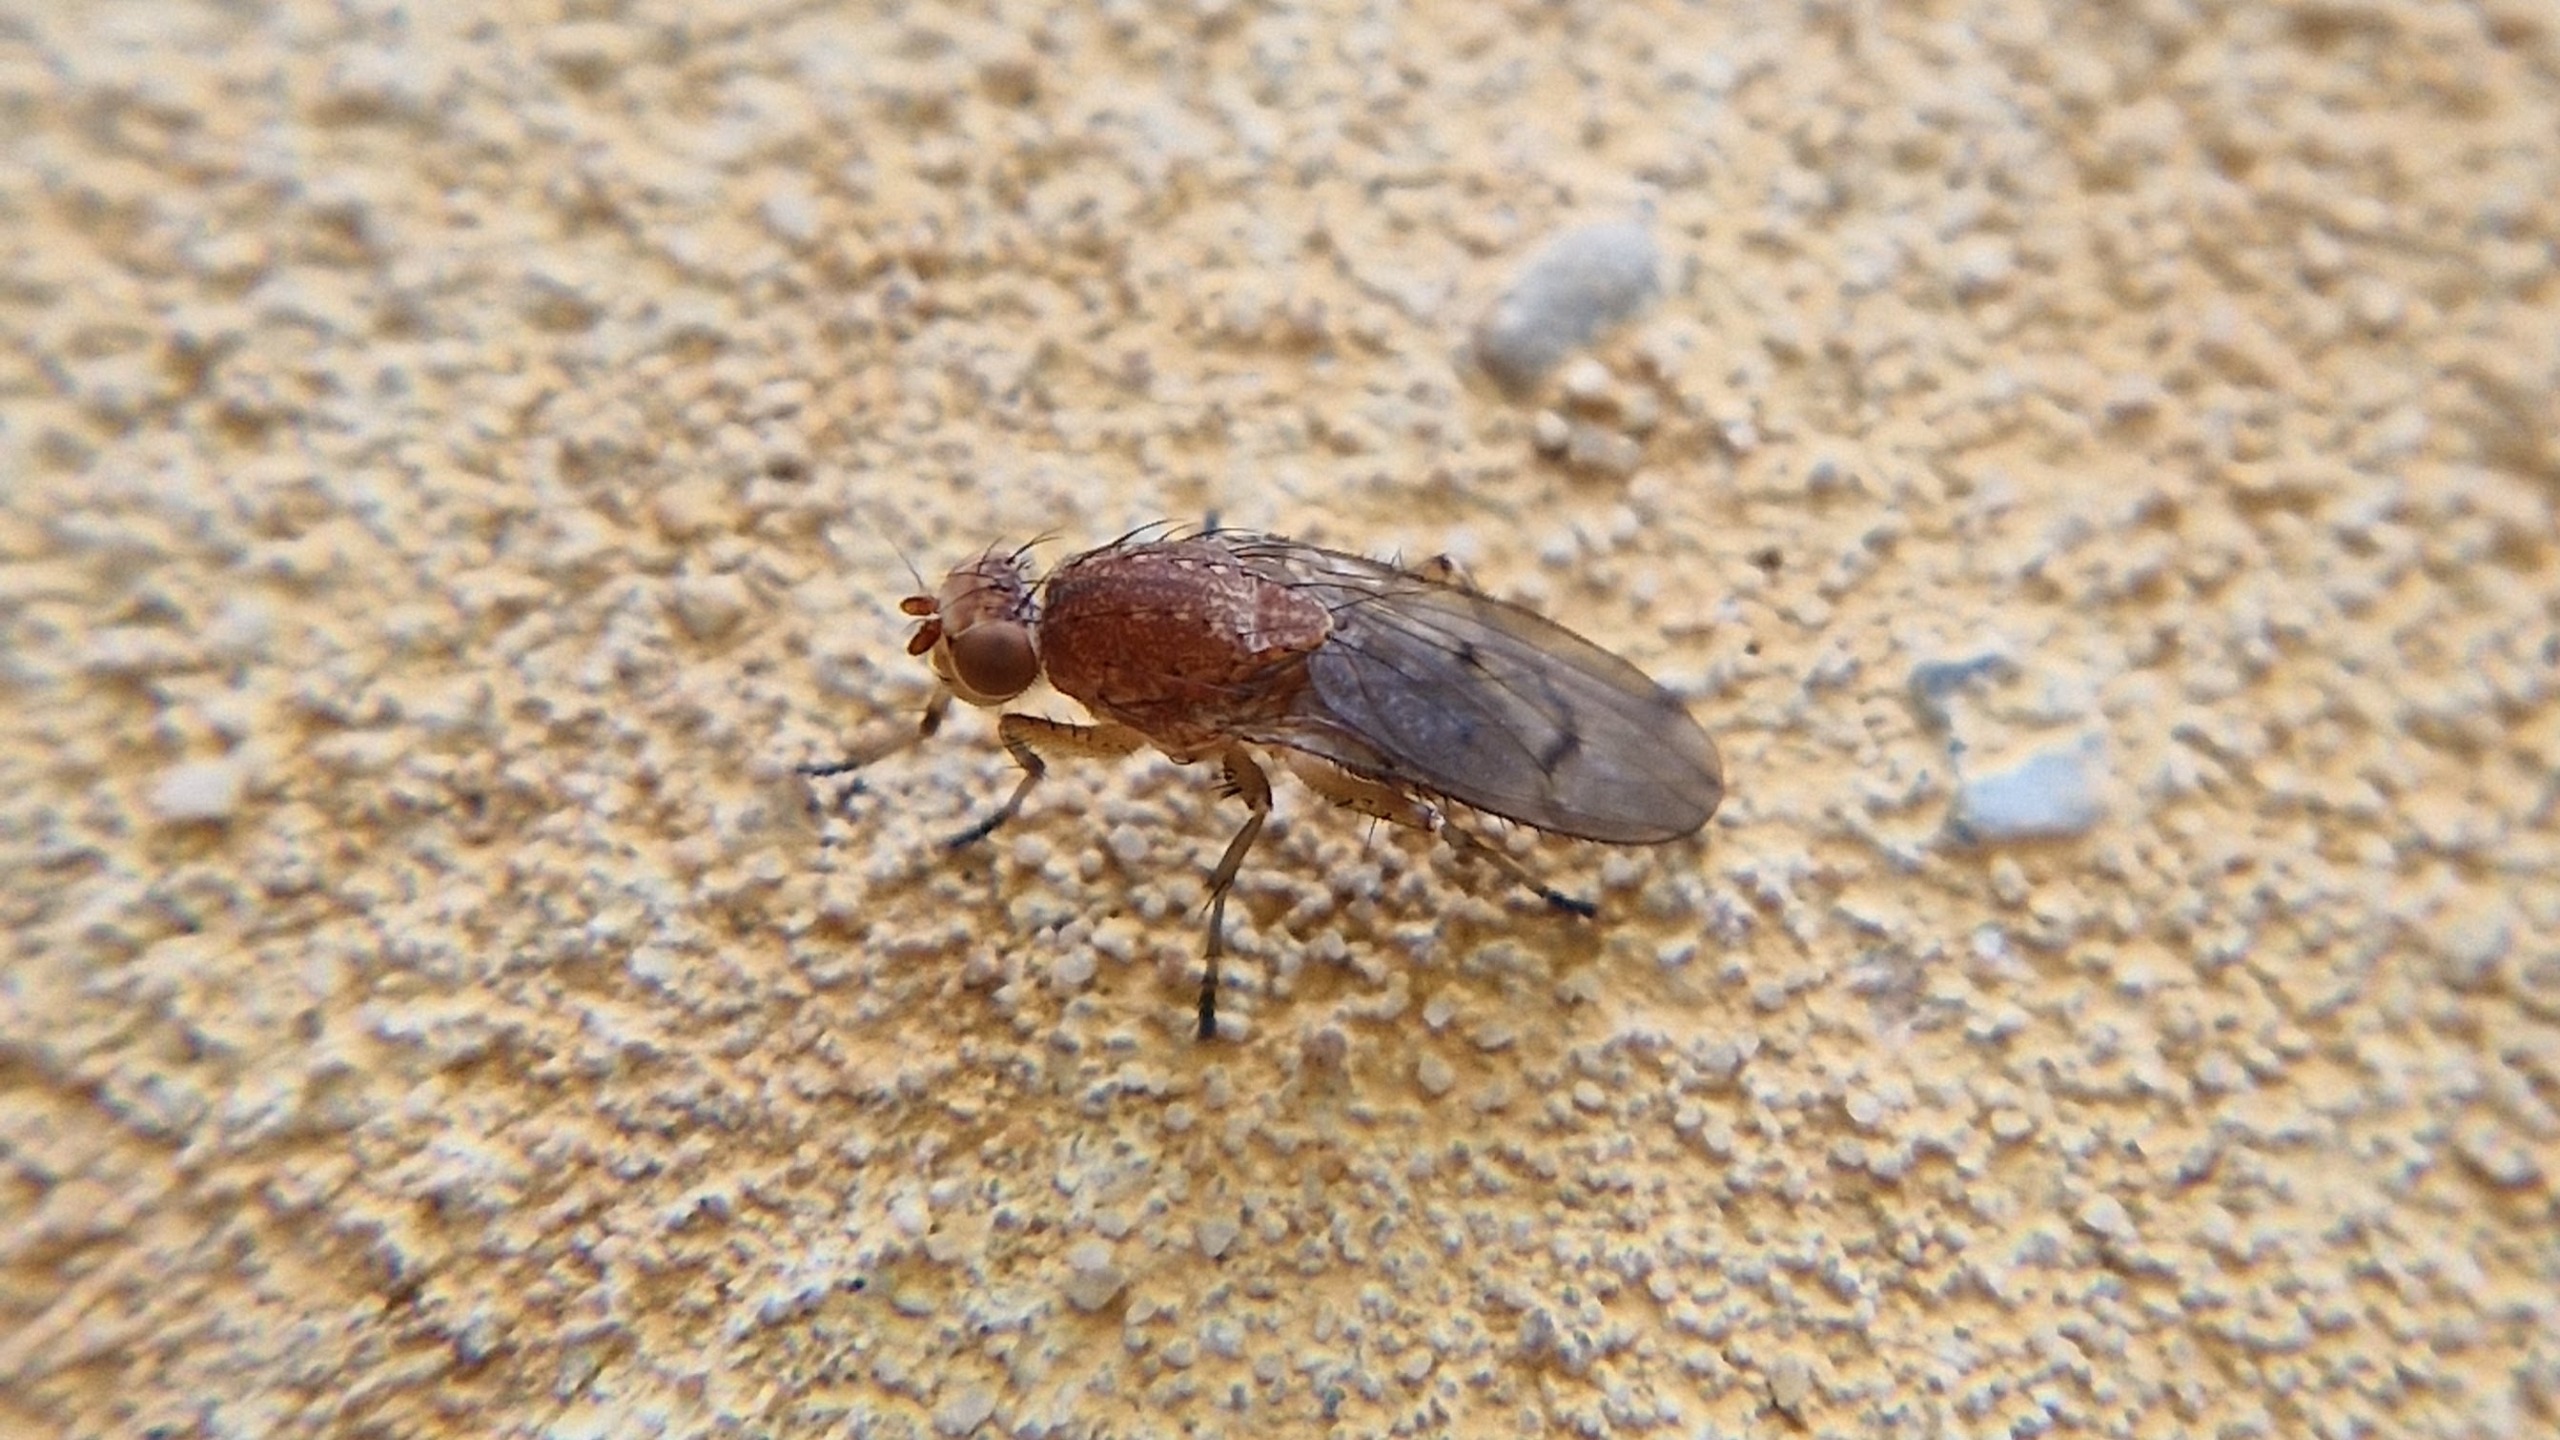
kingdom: Animalia
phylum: Arthropoda
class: Insecta
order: Diptera
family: Heleomyzidae
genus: Suillia
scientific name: Suillia
